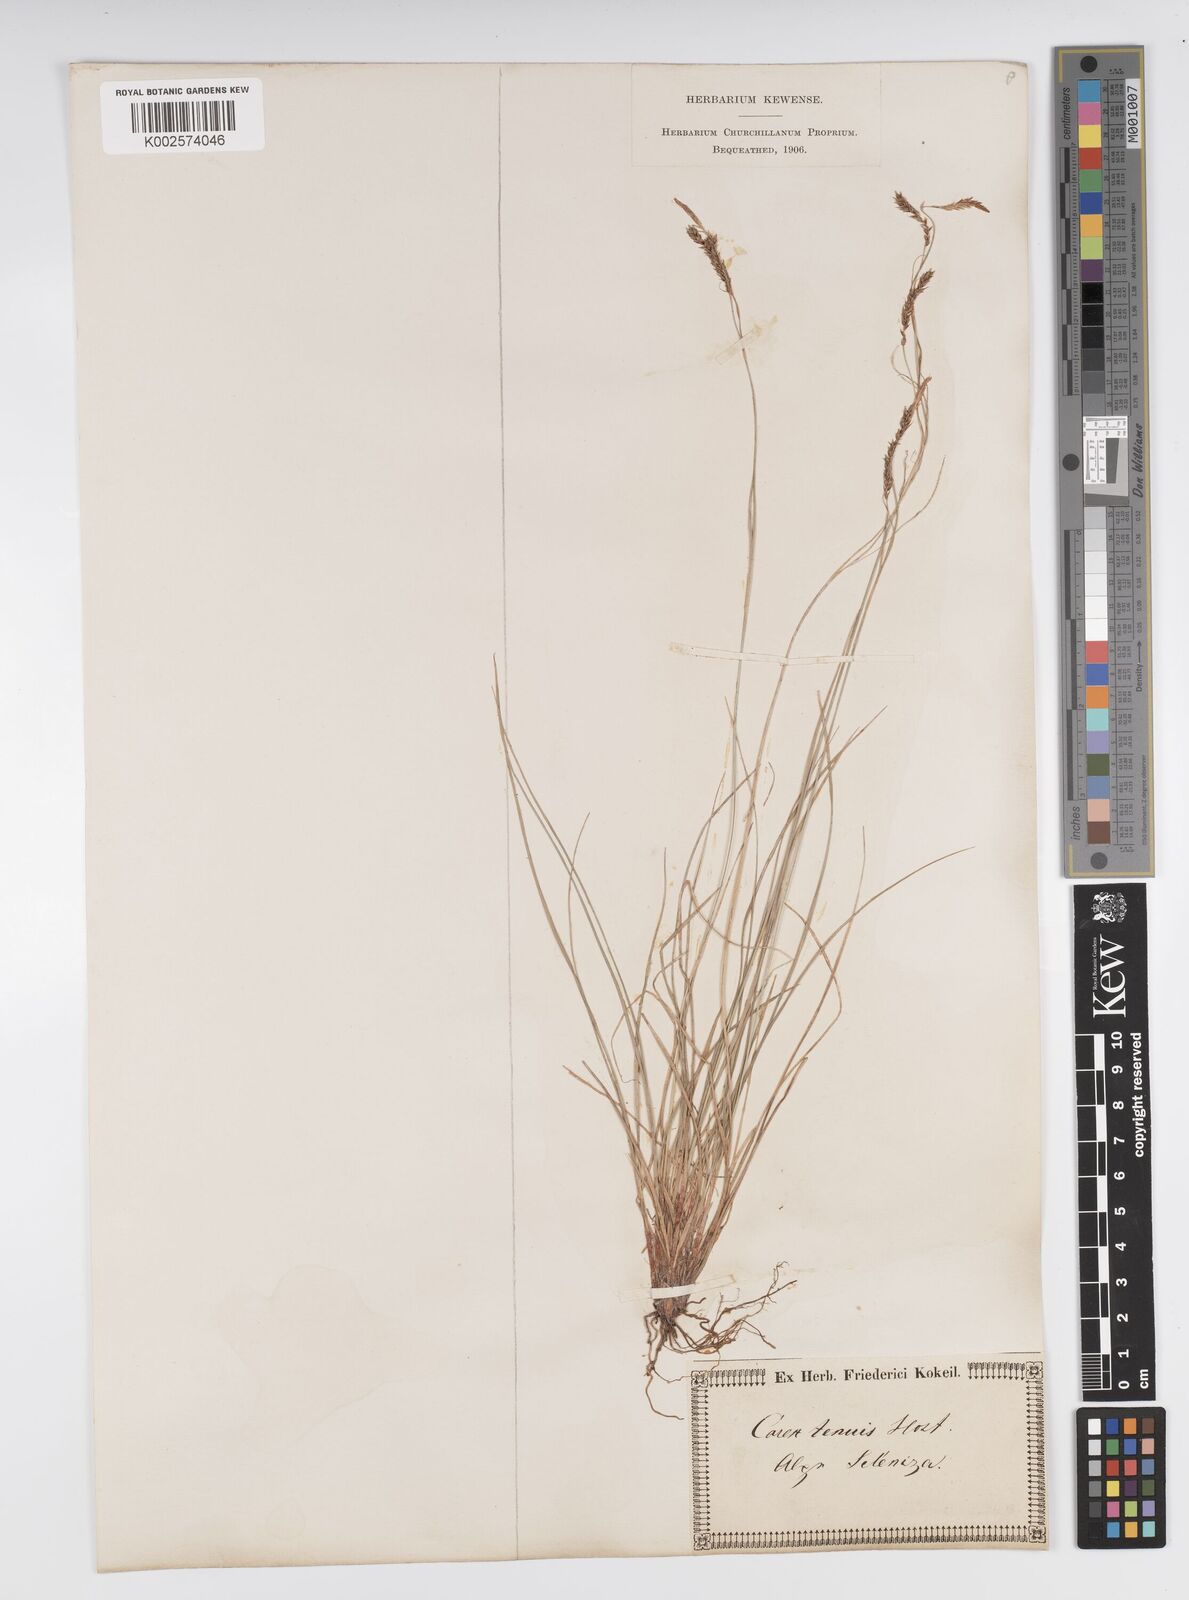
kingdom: Plantae
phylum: Tracheophyta
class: Liliopsida
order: Poales
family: Cyperaceae
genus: Carex
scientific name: Carex brachystachys
